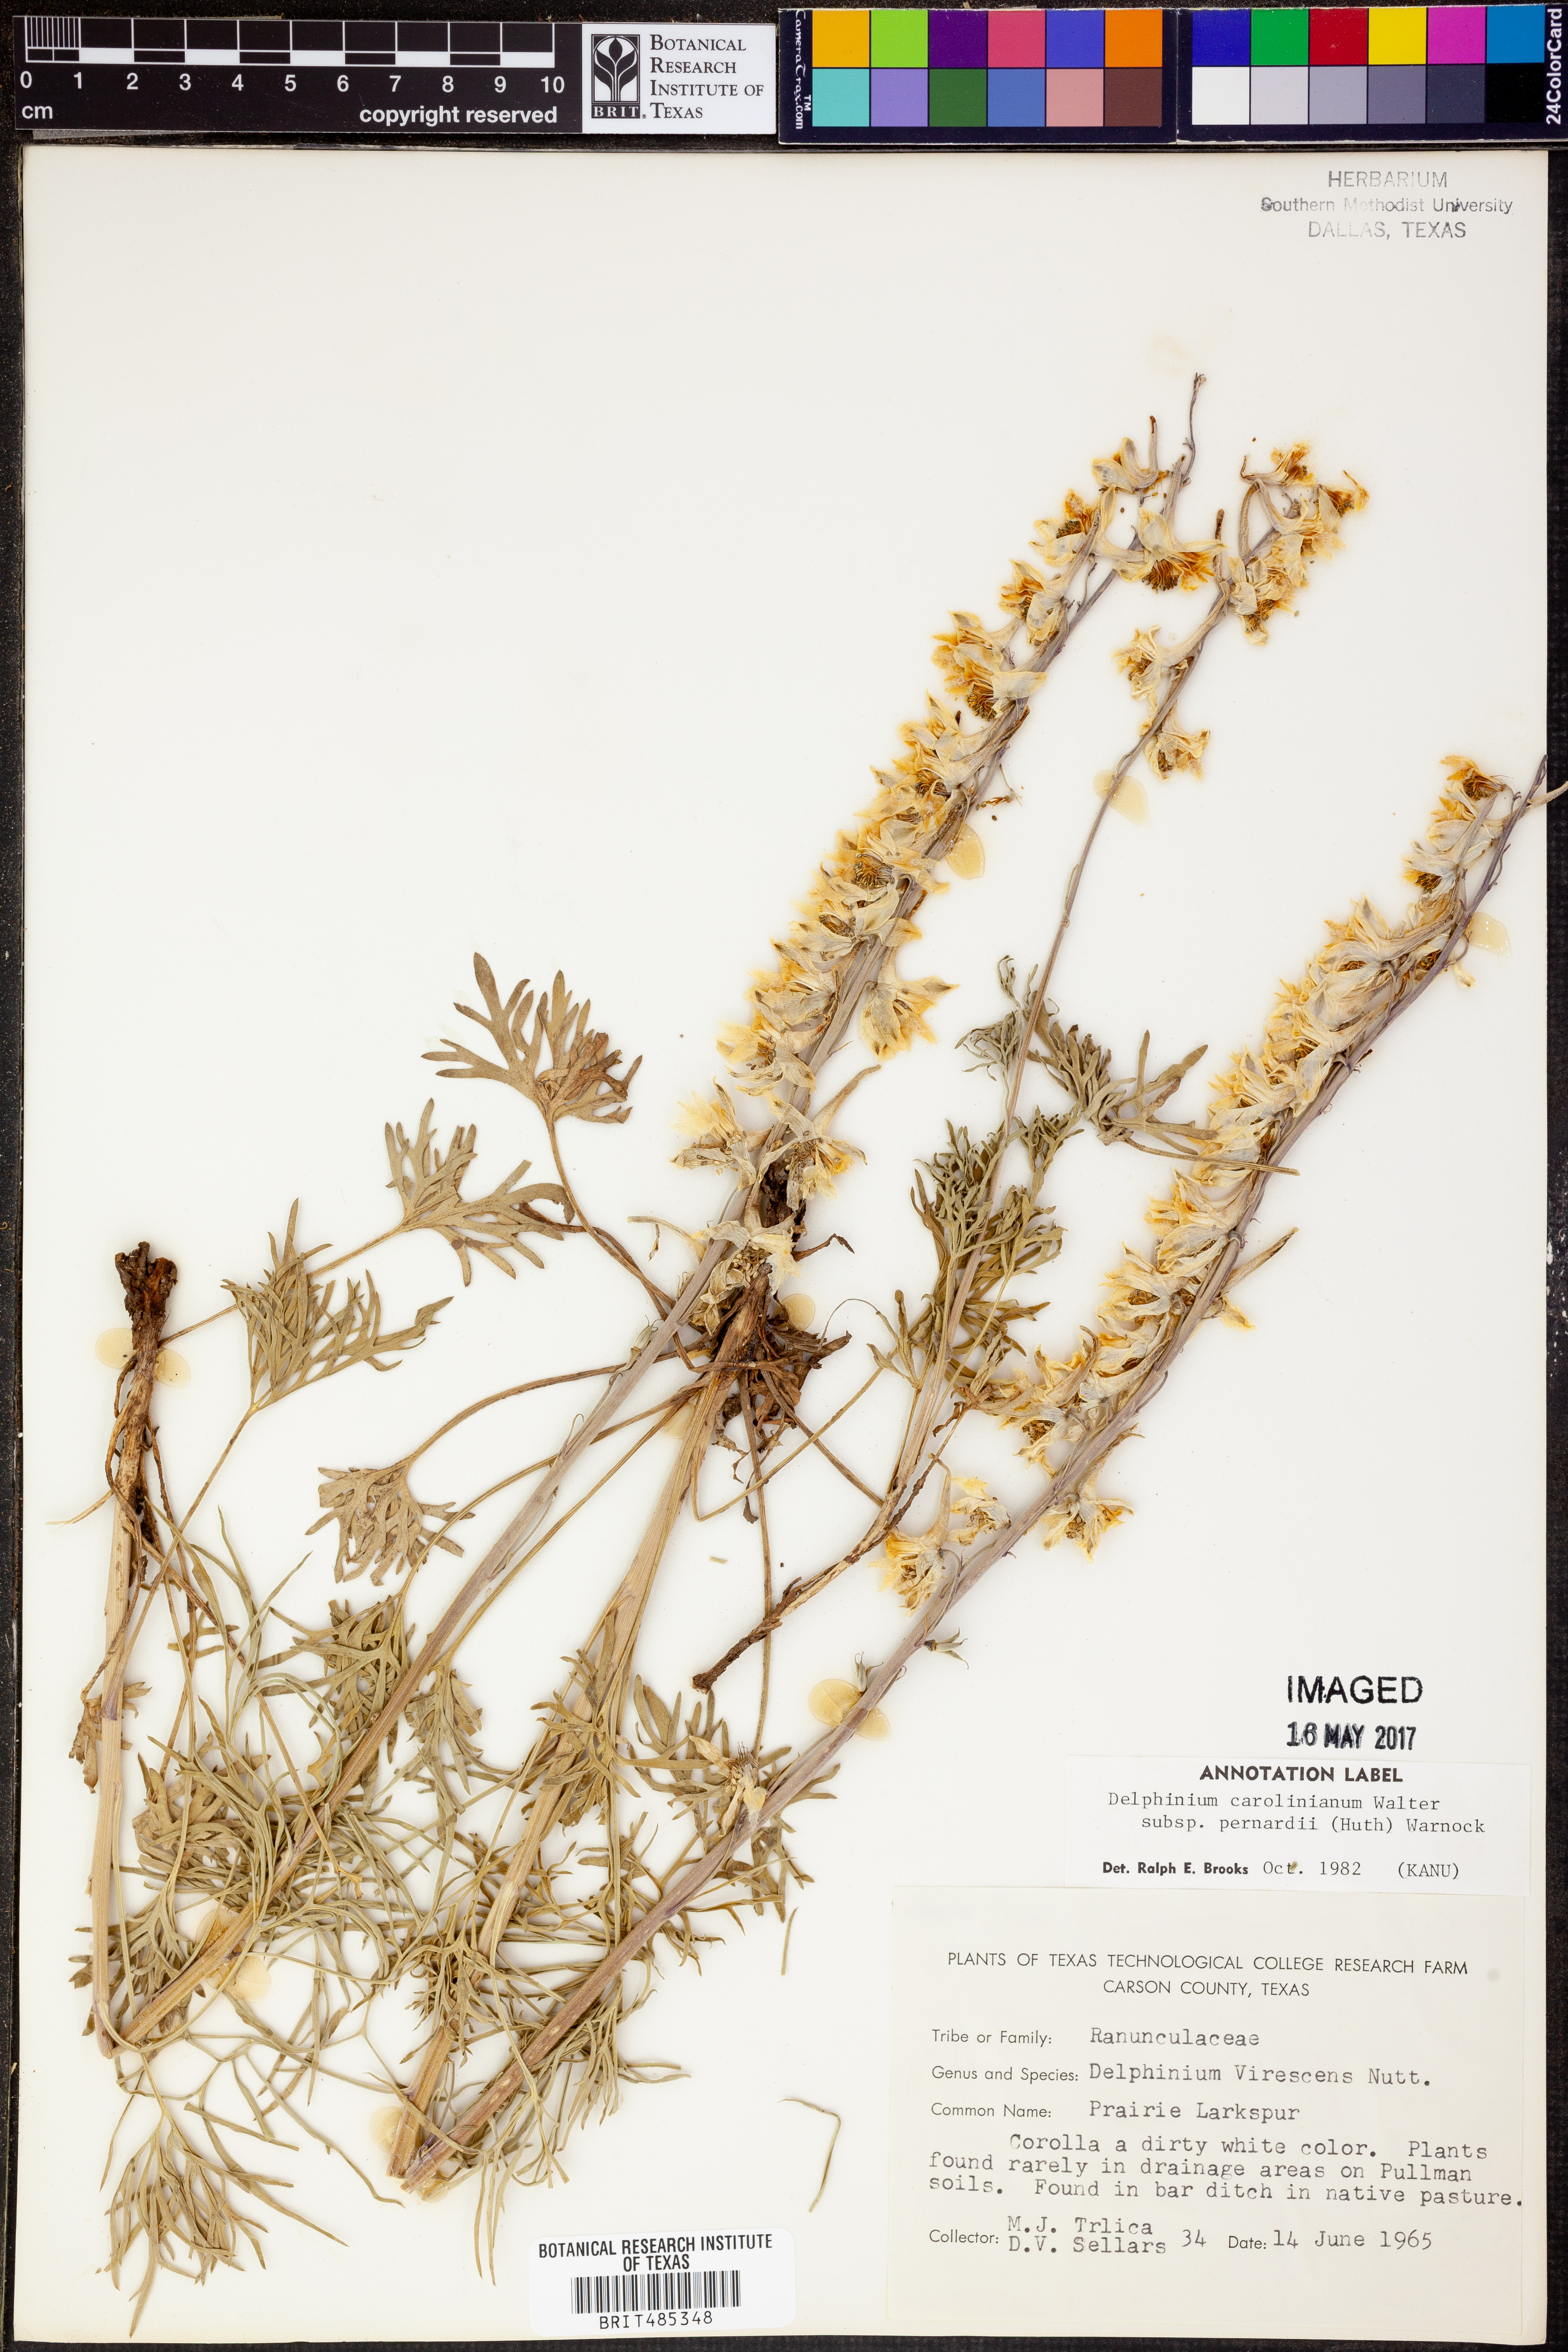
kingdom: Plantae
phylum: Tracheophyta
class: Magnoliopsida
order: Ranunculales
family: Ranunculaceae
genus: Delphinium
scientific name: Delphinium carolinianum
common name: Carolina larkspur
